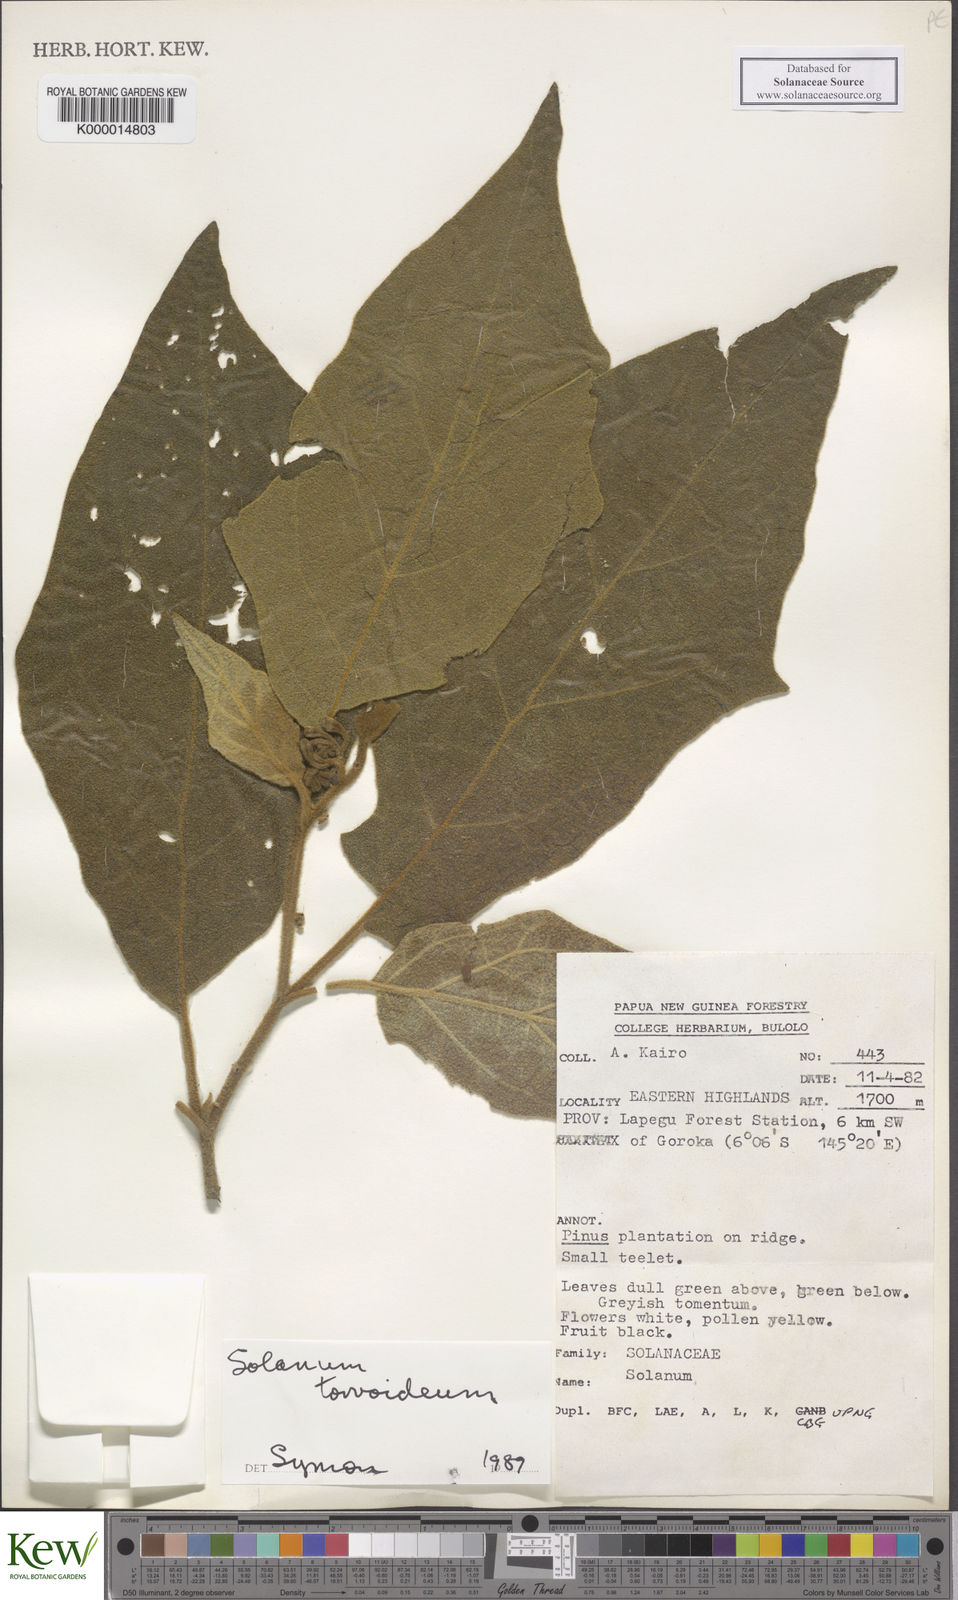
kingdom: Plantae
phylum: Tracheophyta
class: Magnoliopsida
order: Solanales
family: Solanaceae
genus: Solanum
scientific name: Solanum torvoideum
